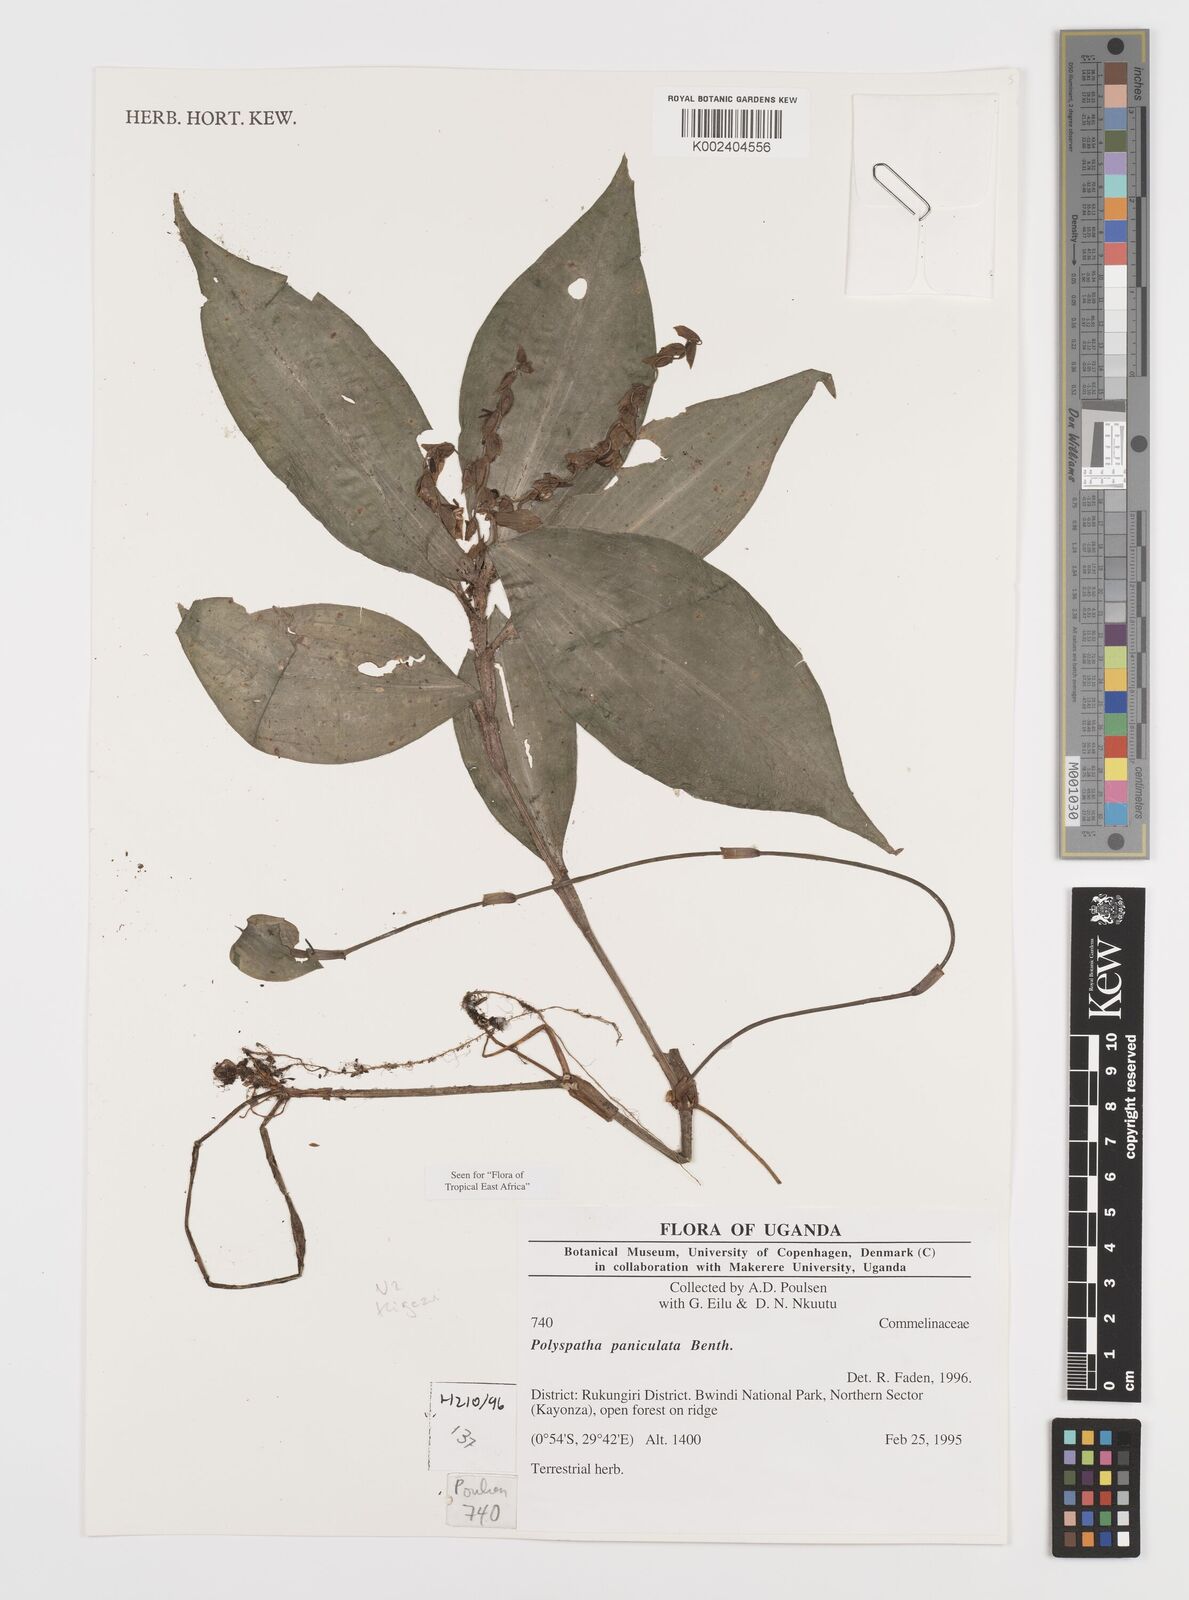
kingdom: Plantae
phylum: Tracheophyta
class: Liliopsida
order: Commelinales
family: Commelinaceae
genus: Polyspatha
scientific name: Polyspatha paniculata
